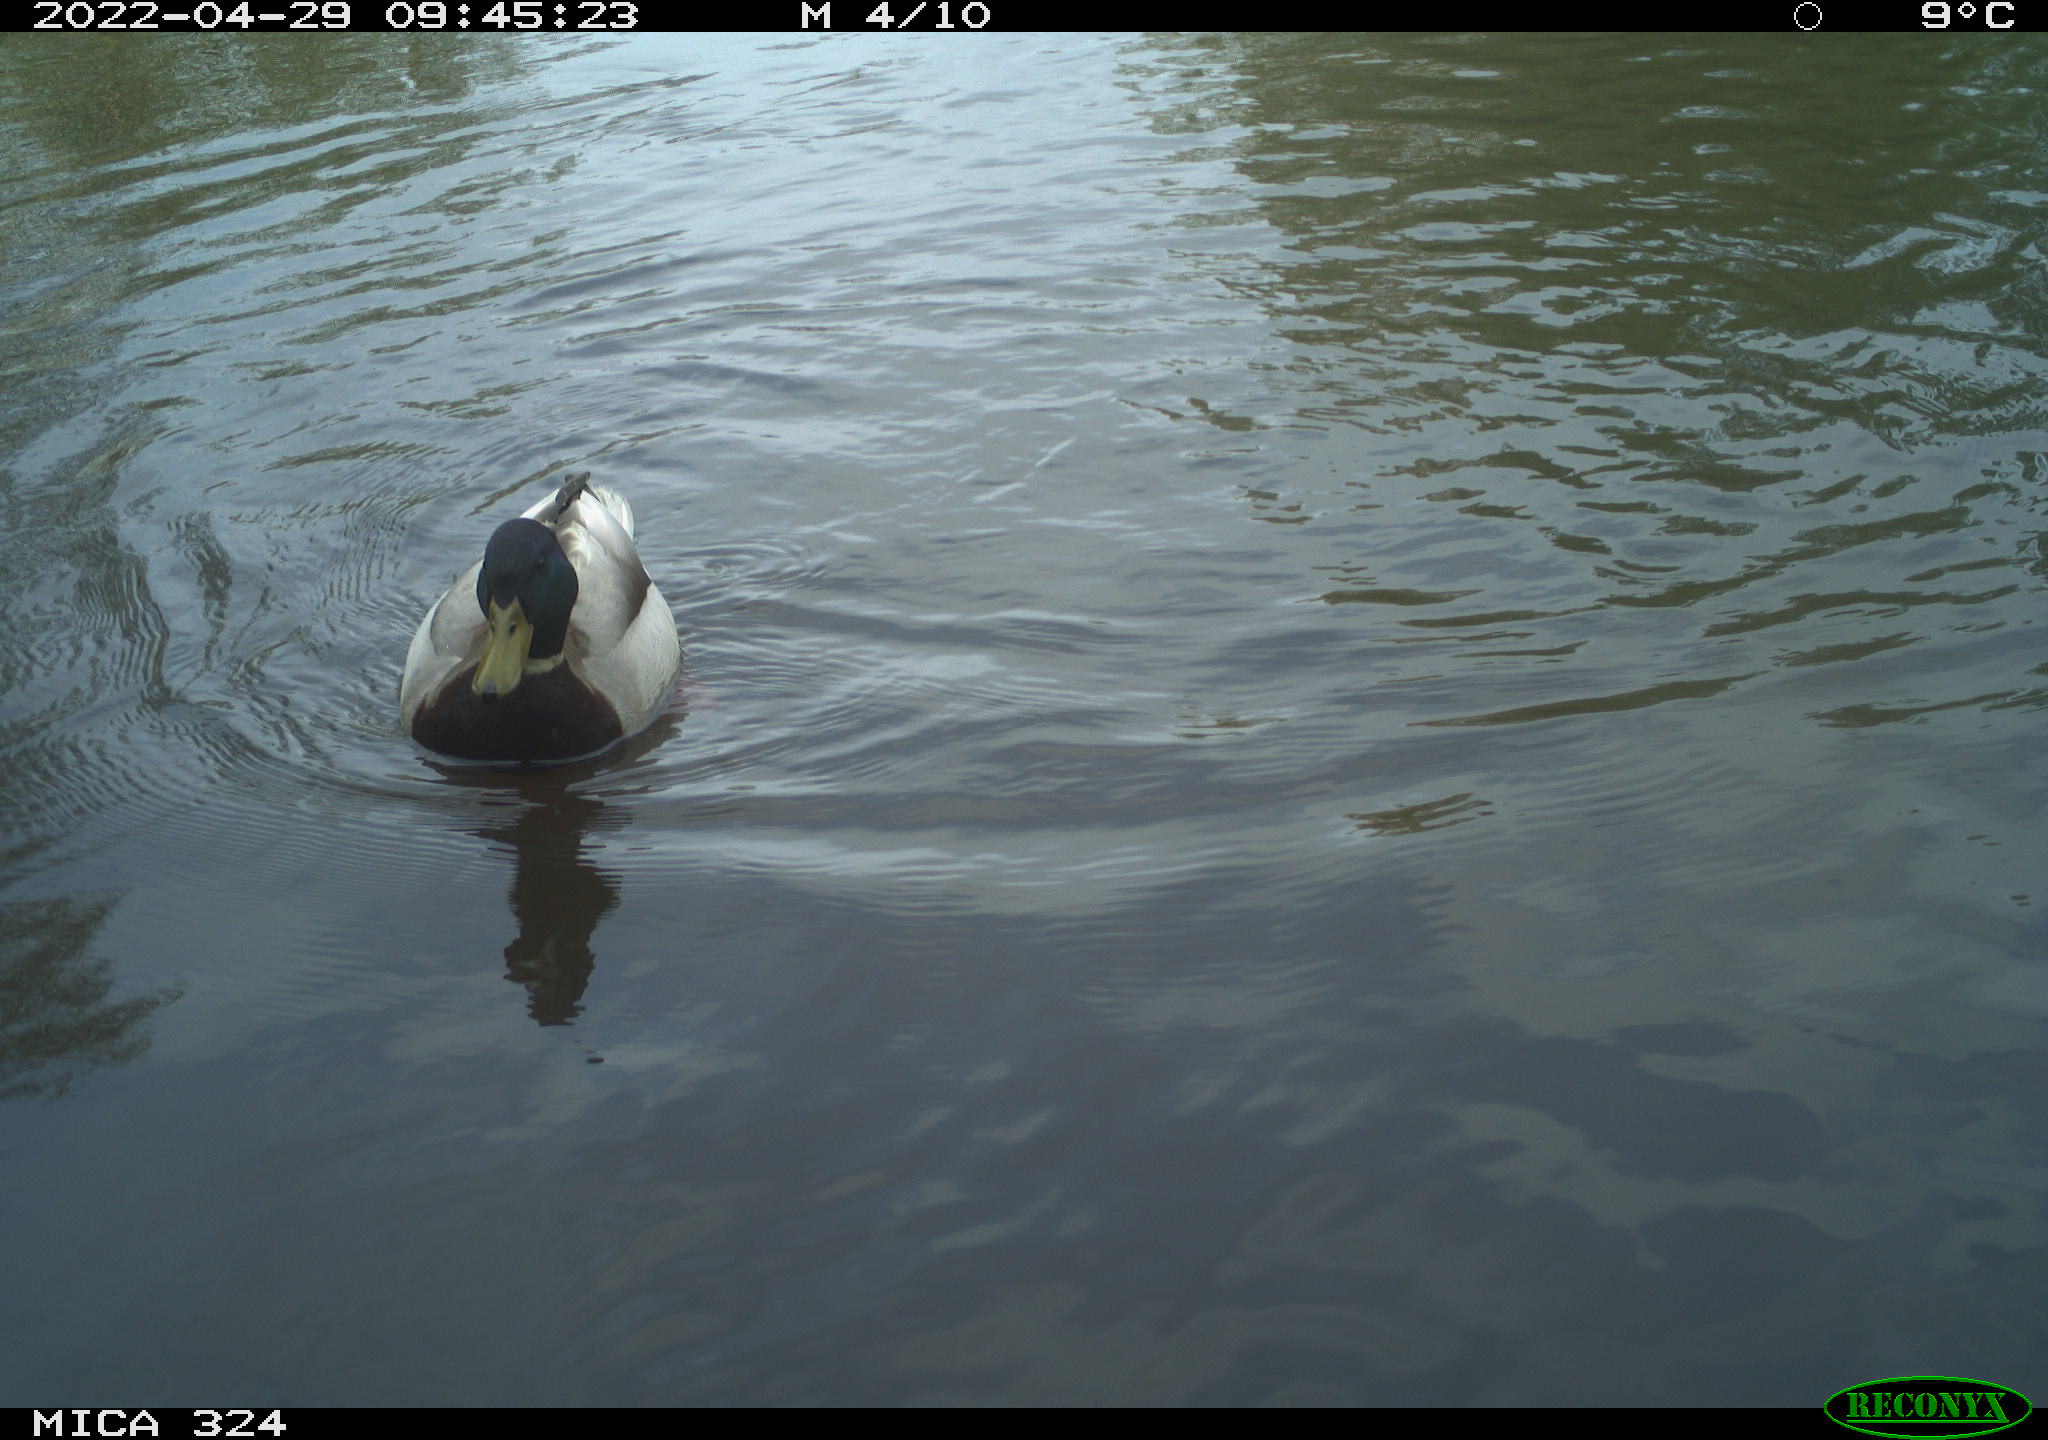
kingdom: Animalia
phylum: Chordata
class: Aves
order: Anseriformes
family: Anatidae
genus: Anas
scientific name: Anas platyrhynchos
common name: Mallard
